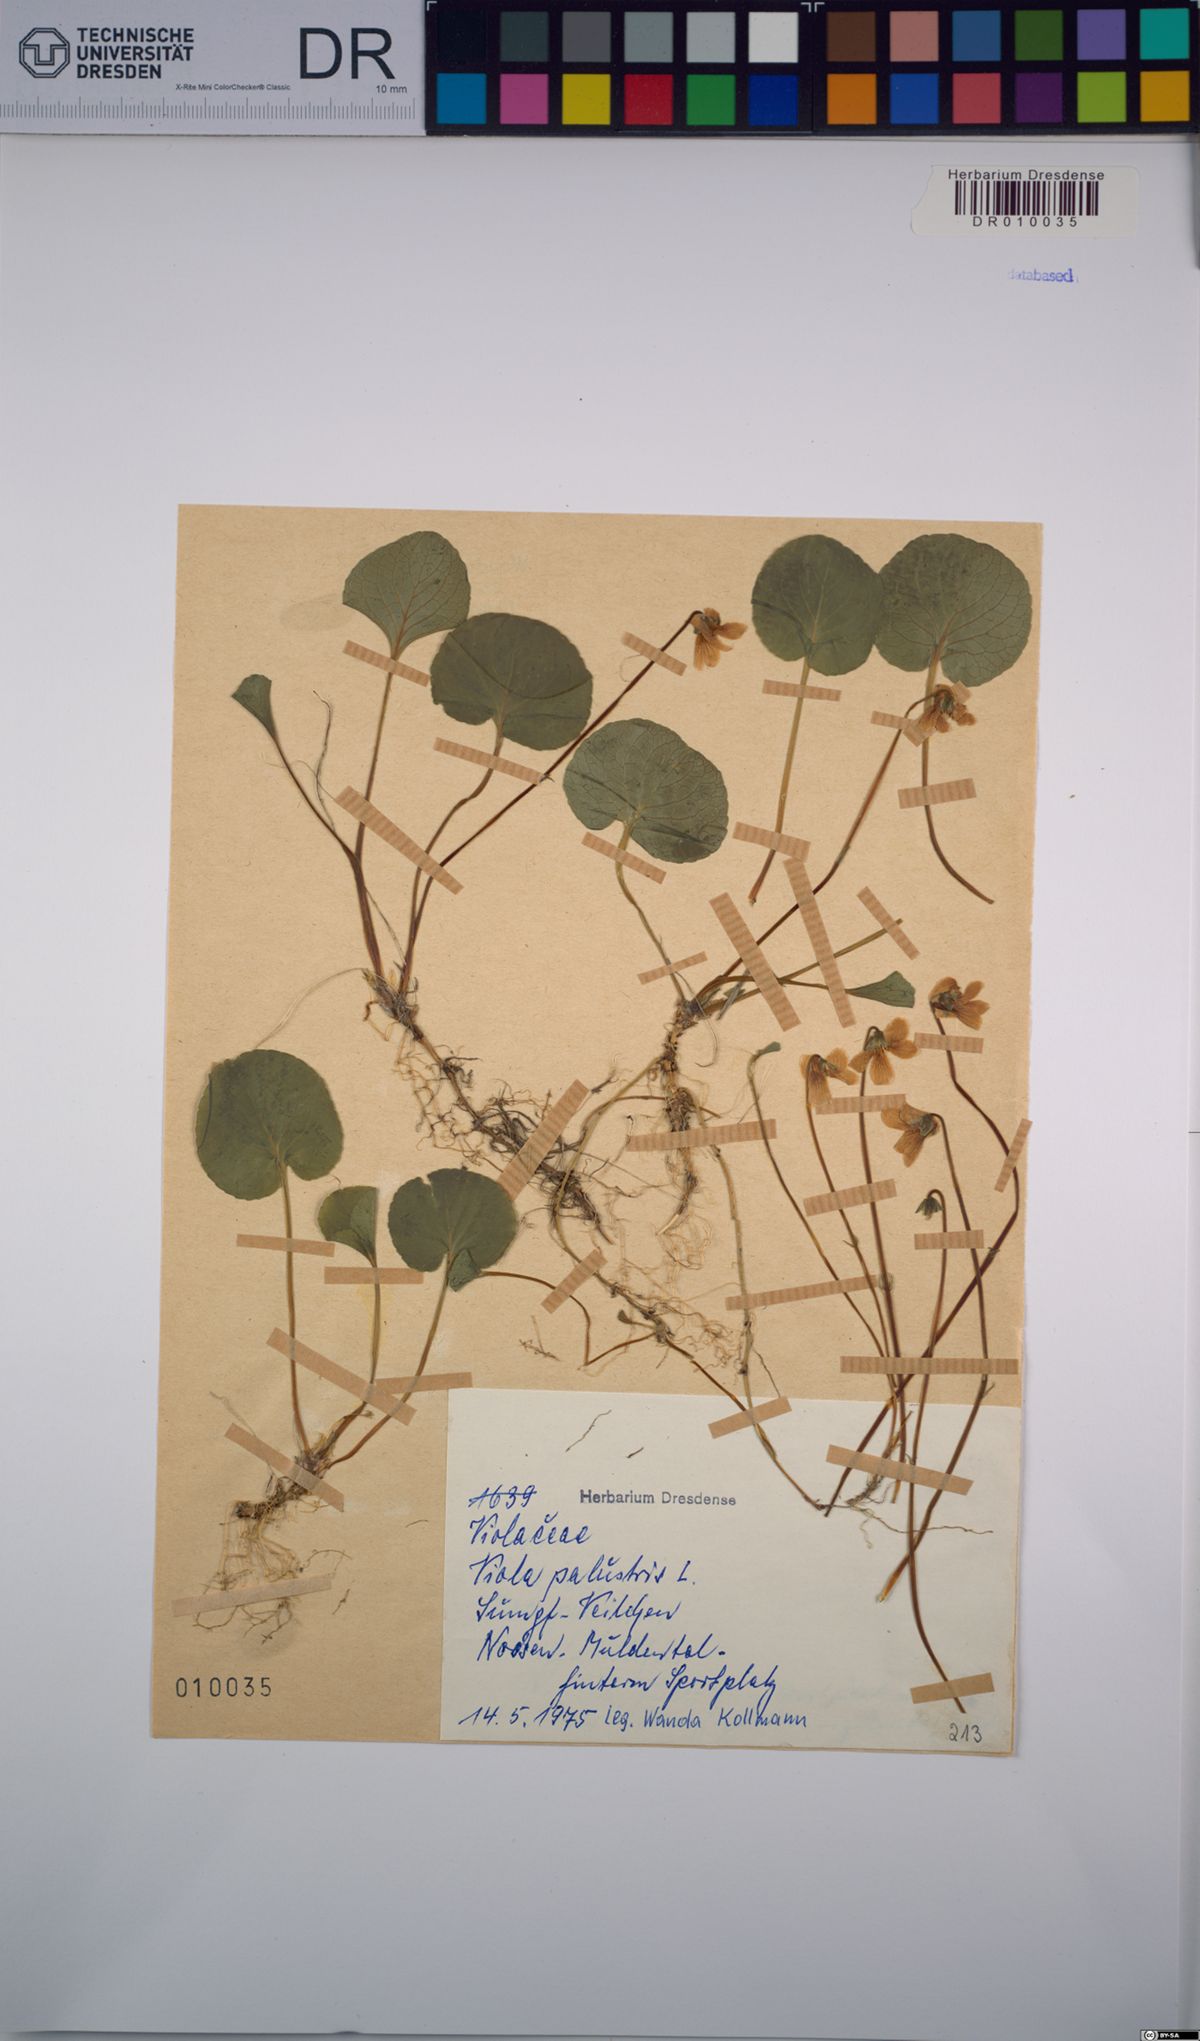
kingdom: Plantae
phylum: Tracheophyta
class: Magnoliopsida
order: Malpighiales
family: Violaceae
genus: Viola
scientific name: Viola palustris
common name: Marsh violet
